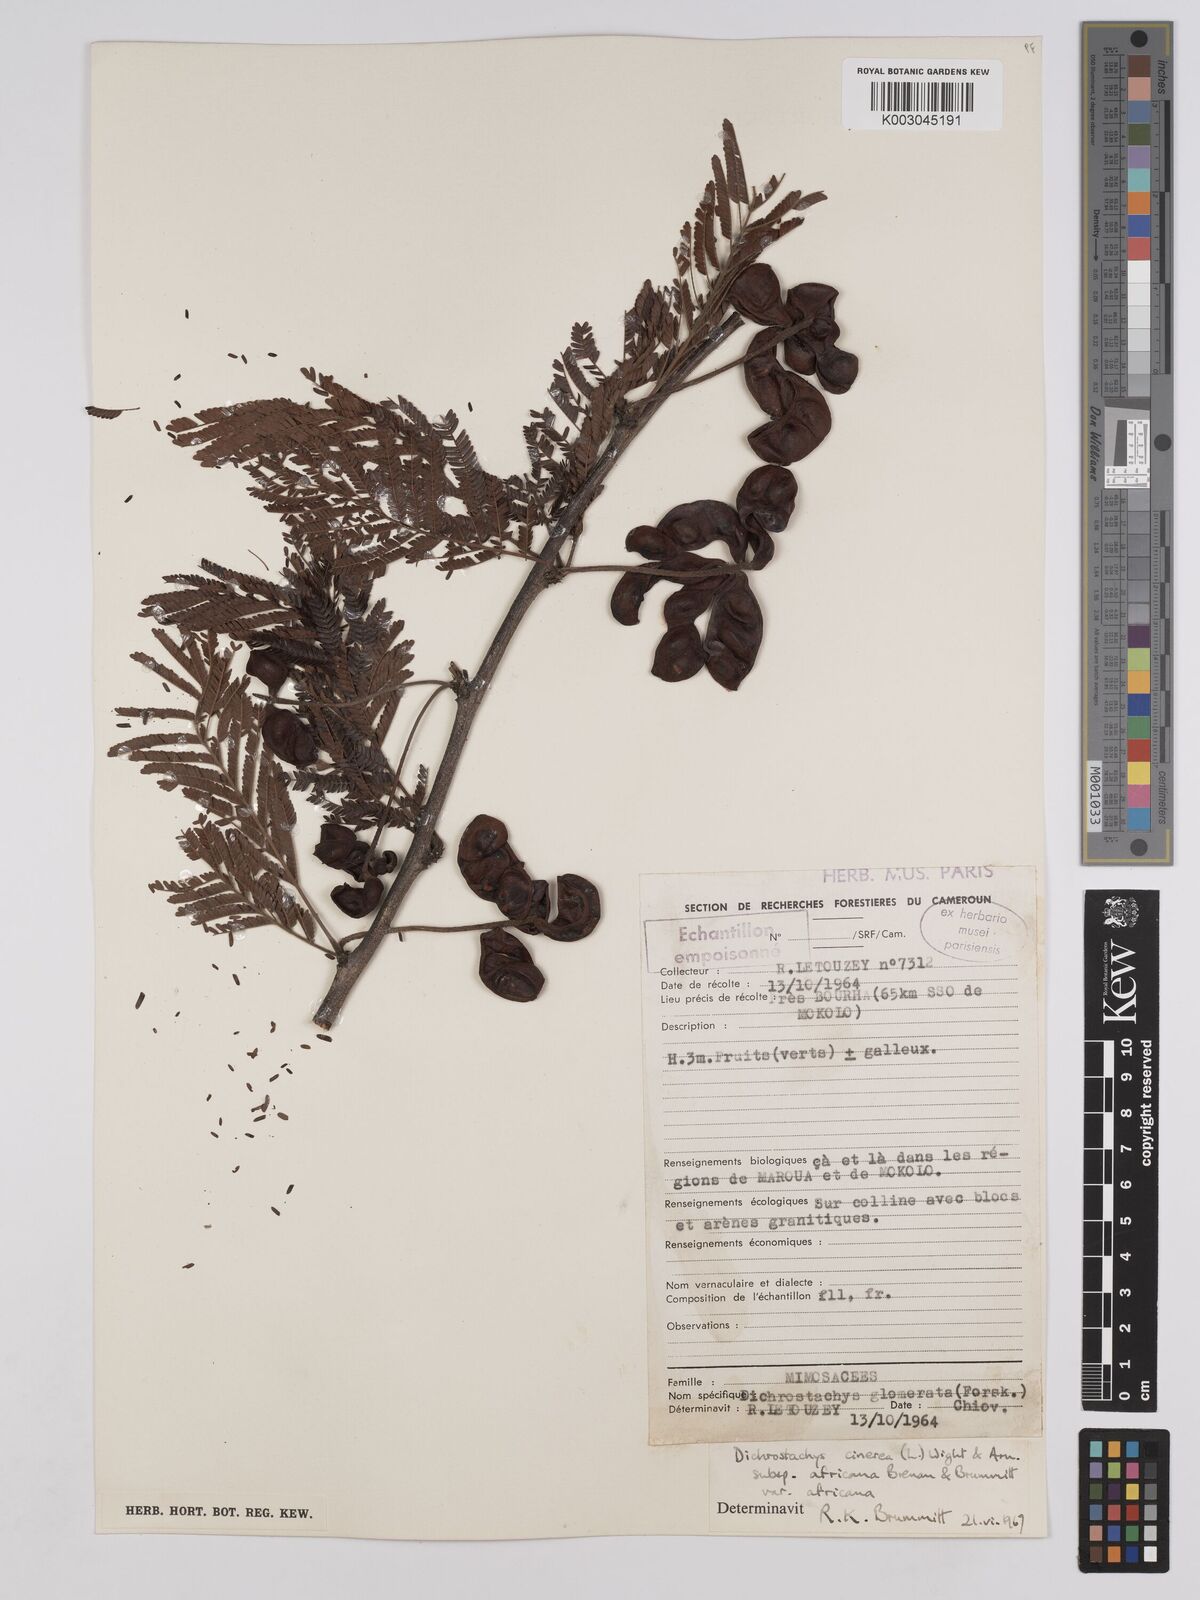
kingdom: Plantae
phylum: Tracheophyta
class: Magnoliopsida
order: Fabales
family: Fabaceae
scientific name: Fabaceae
